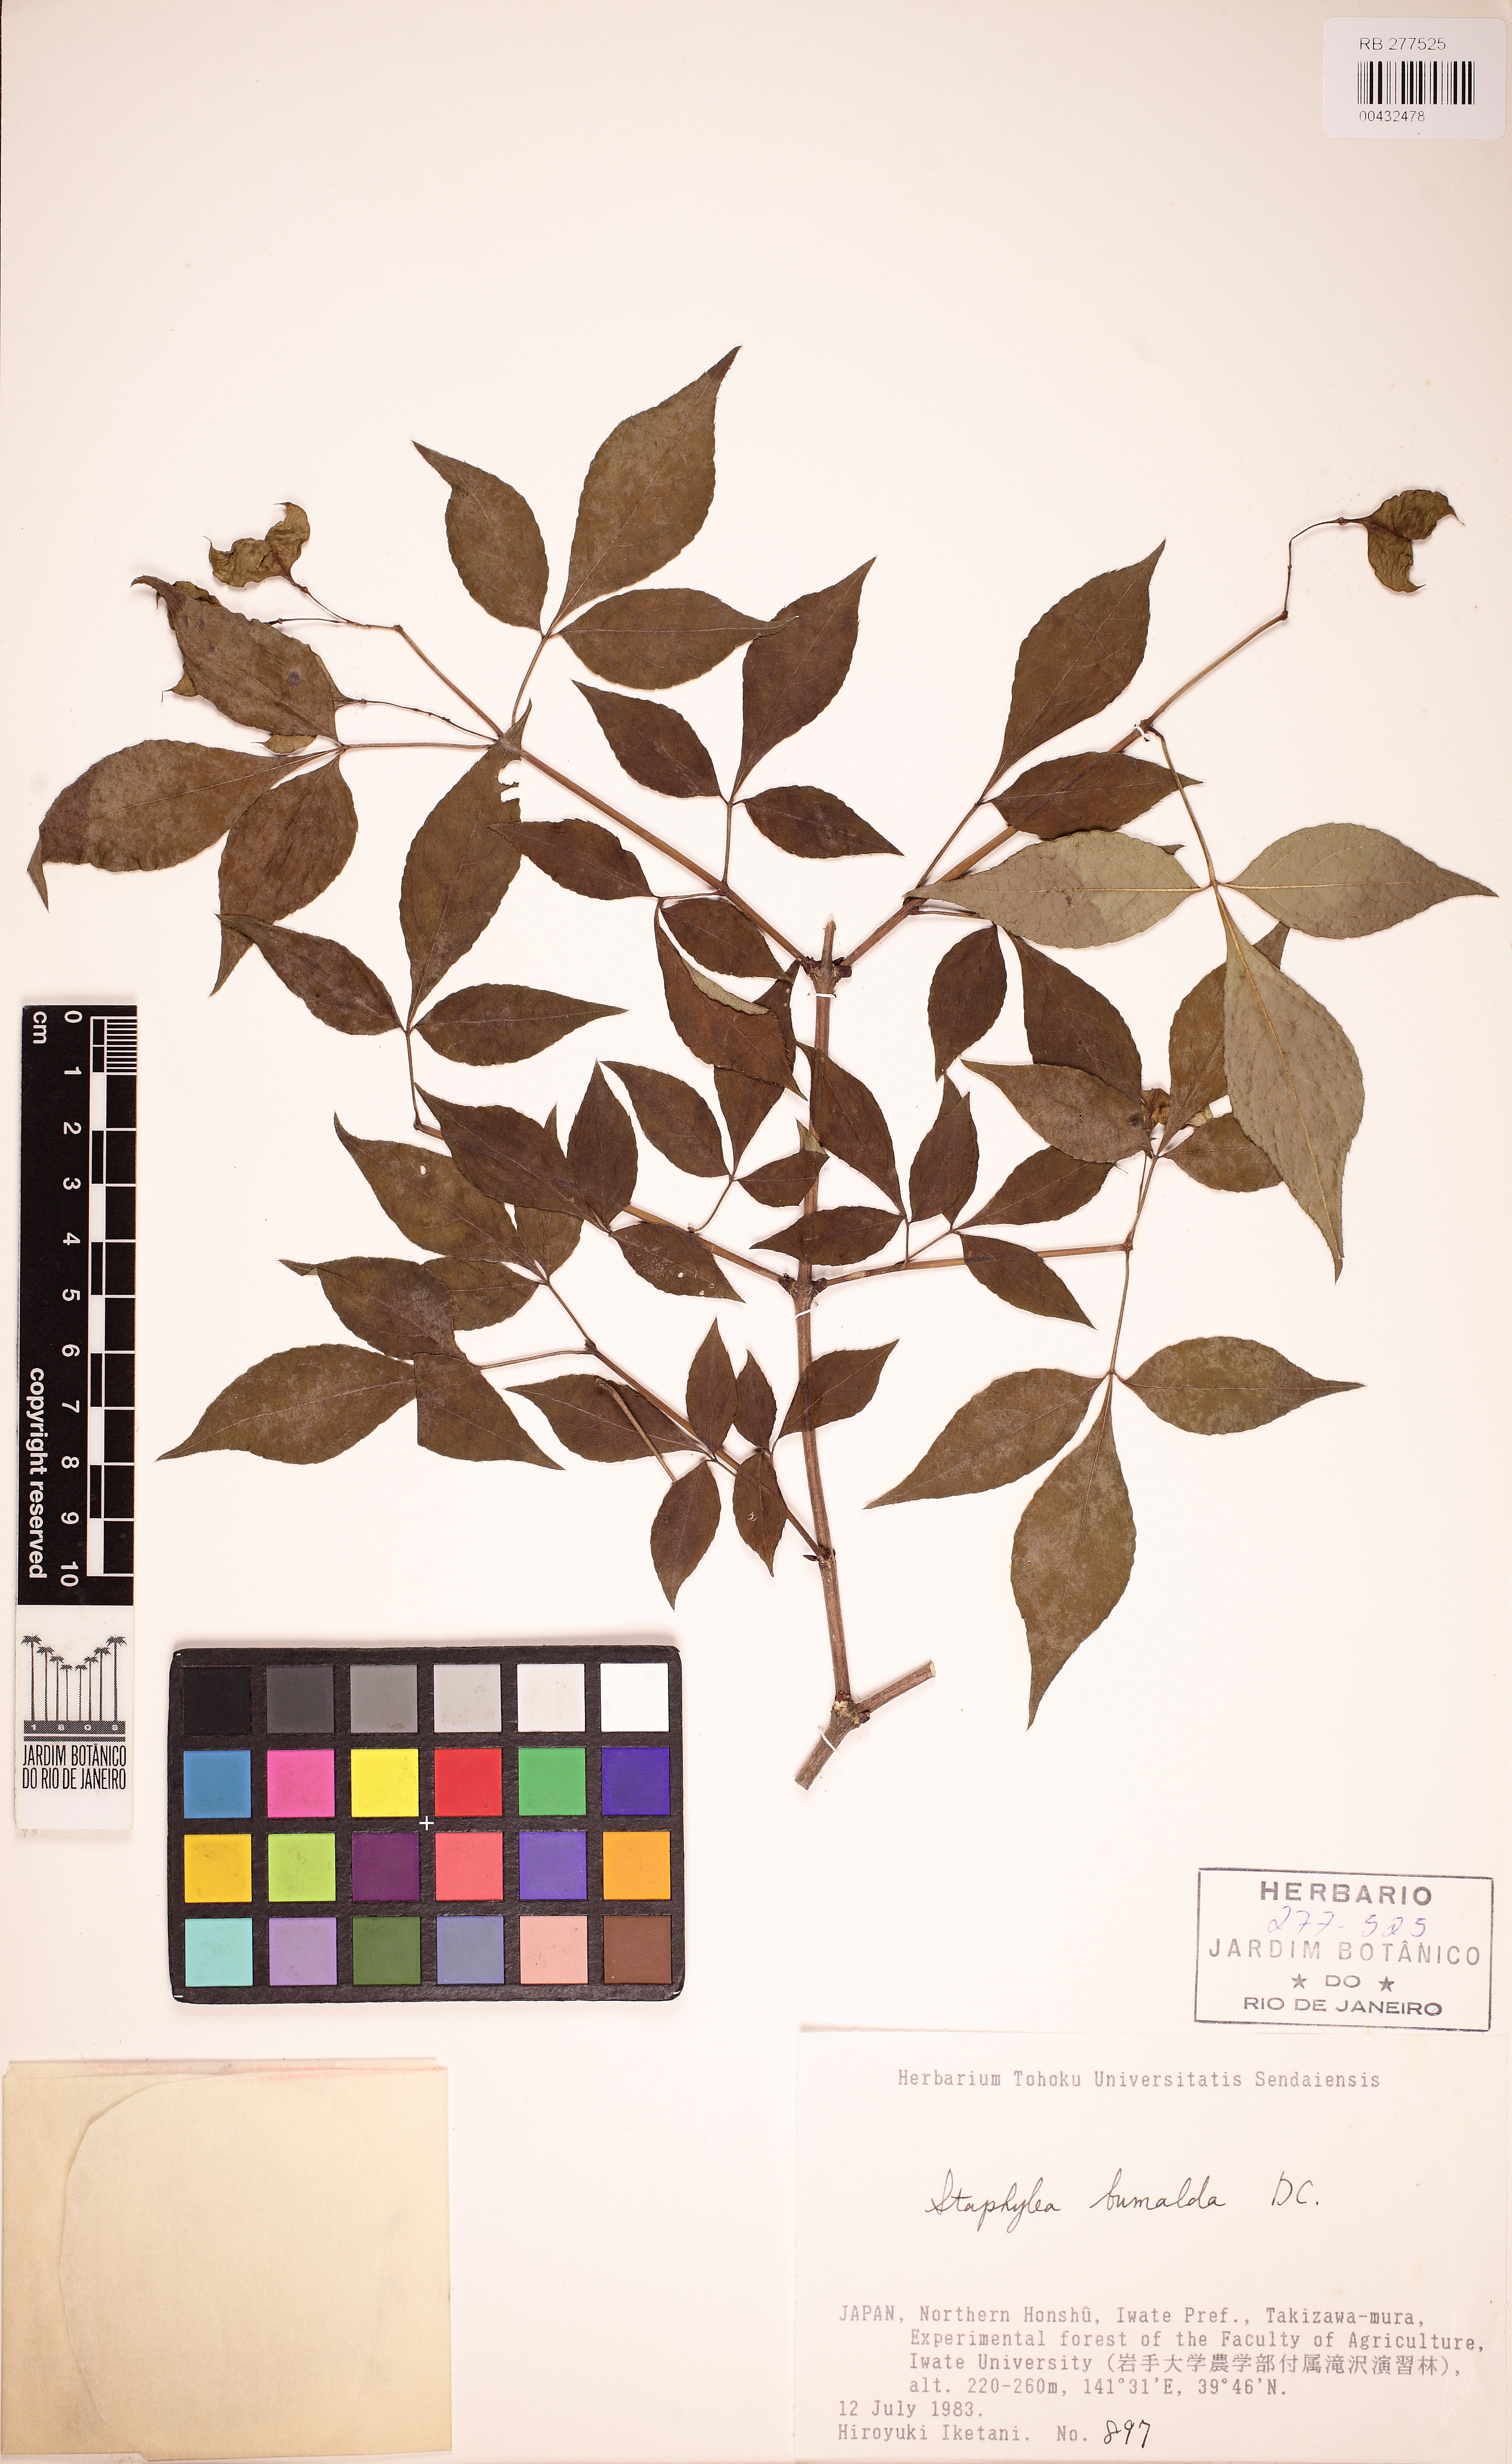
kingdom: Plantae
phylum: Tracheophyta
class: Magnoliopsida
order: Crossosomatales
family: Staphyleaceae
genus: Staphylea
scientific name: Staphylea bumalda
